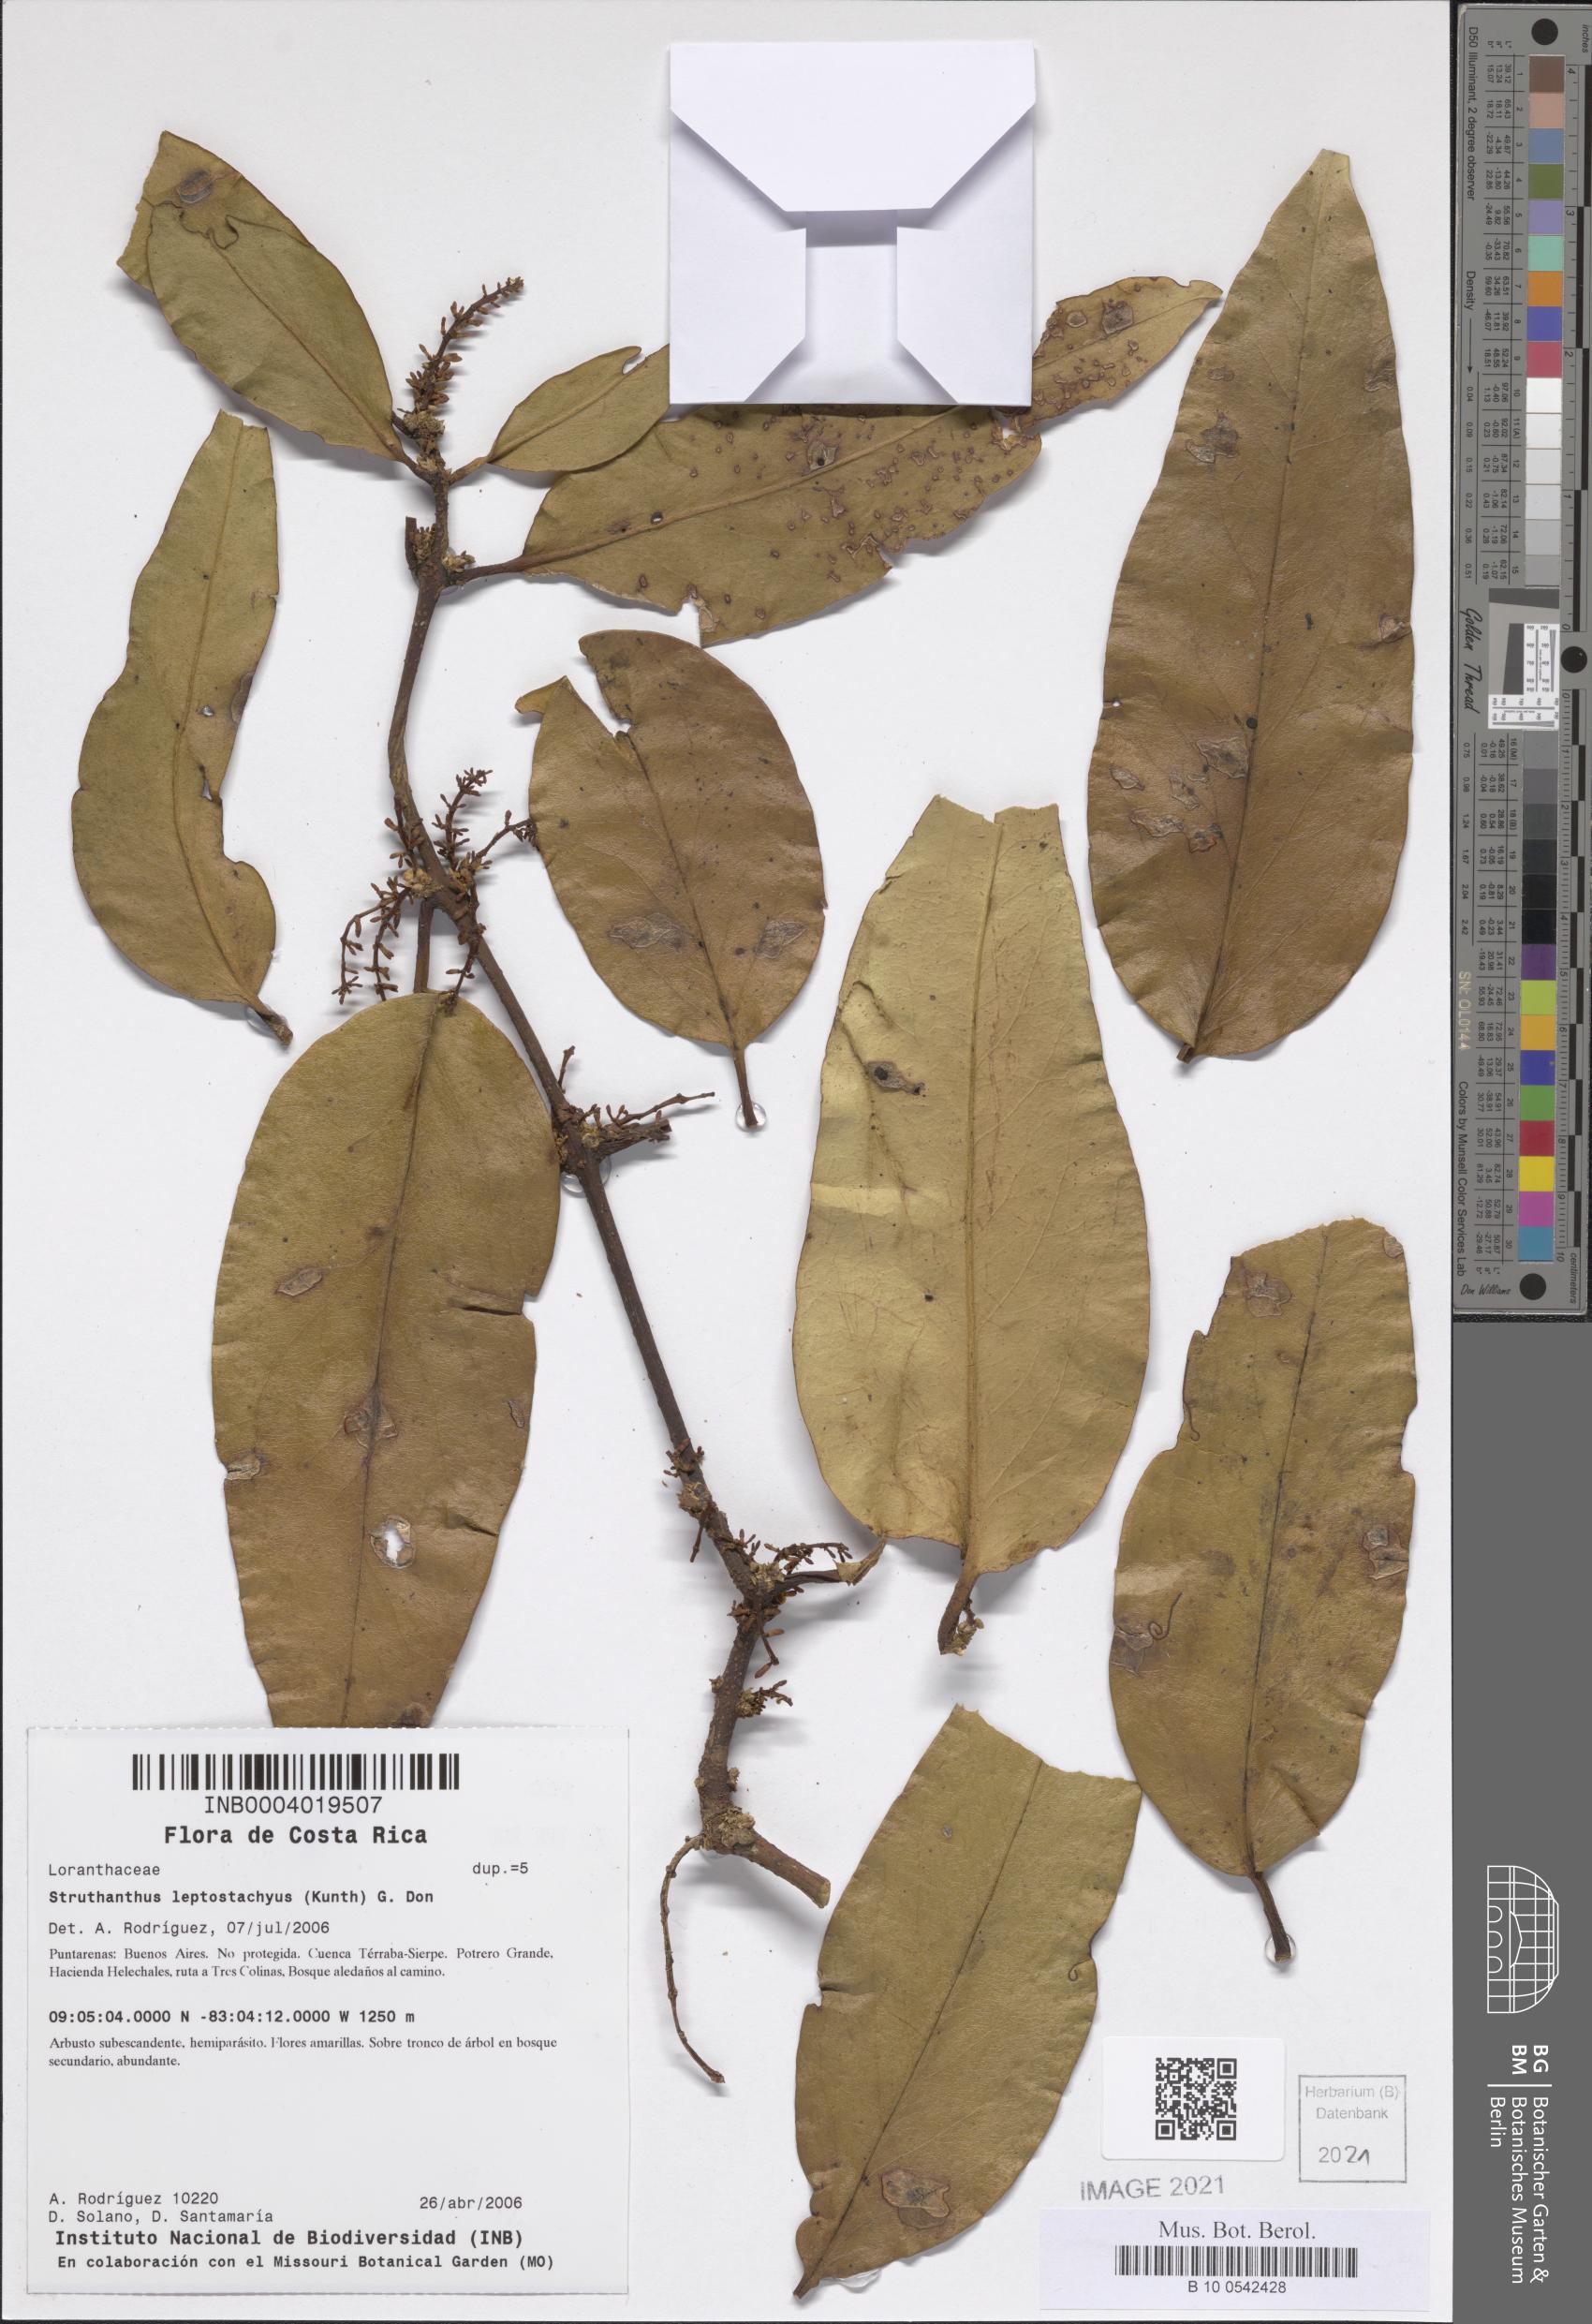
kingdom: Plantae
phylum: Tracheophyta
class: Magnoliopsida
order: Santalales
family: Loranthaceae
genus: Peristethium
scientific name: Peristethium leptostachyum
